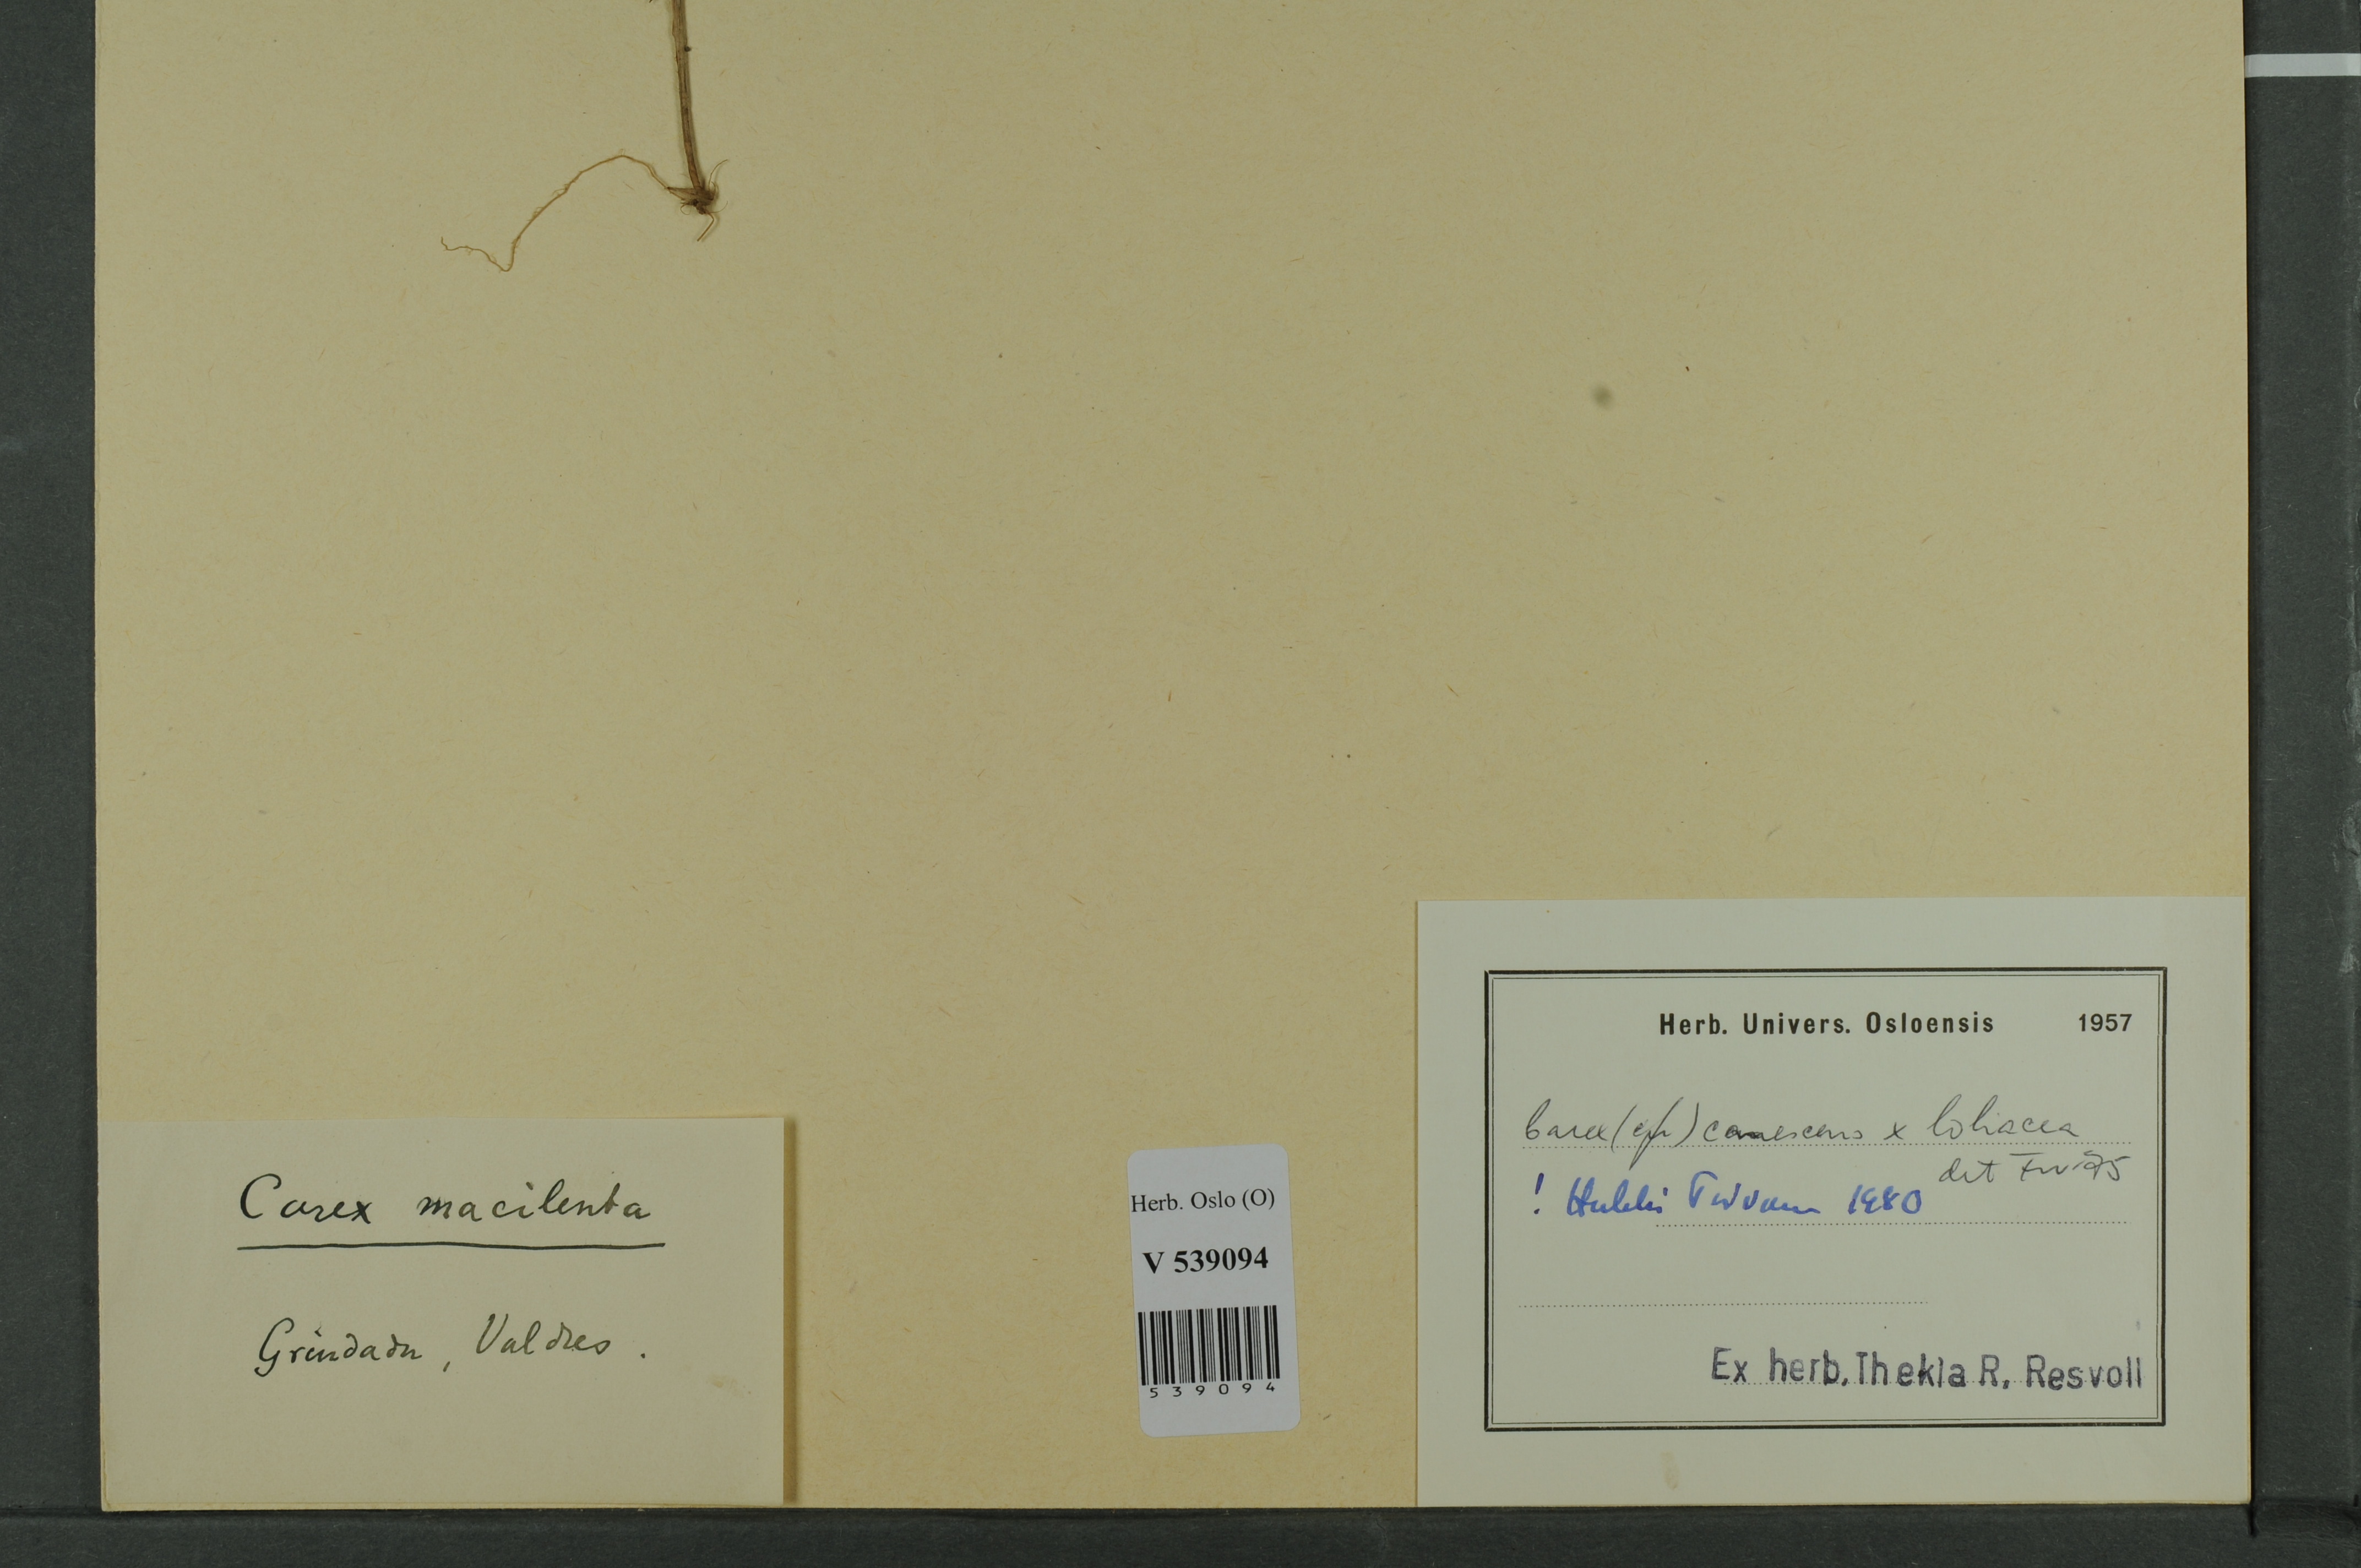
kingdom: Plantae
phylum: Tracheophyta
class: Liliopsida
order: Poales
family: Cyperaceae
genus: Carex
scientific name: Carex
